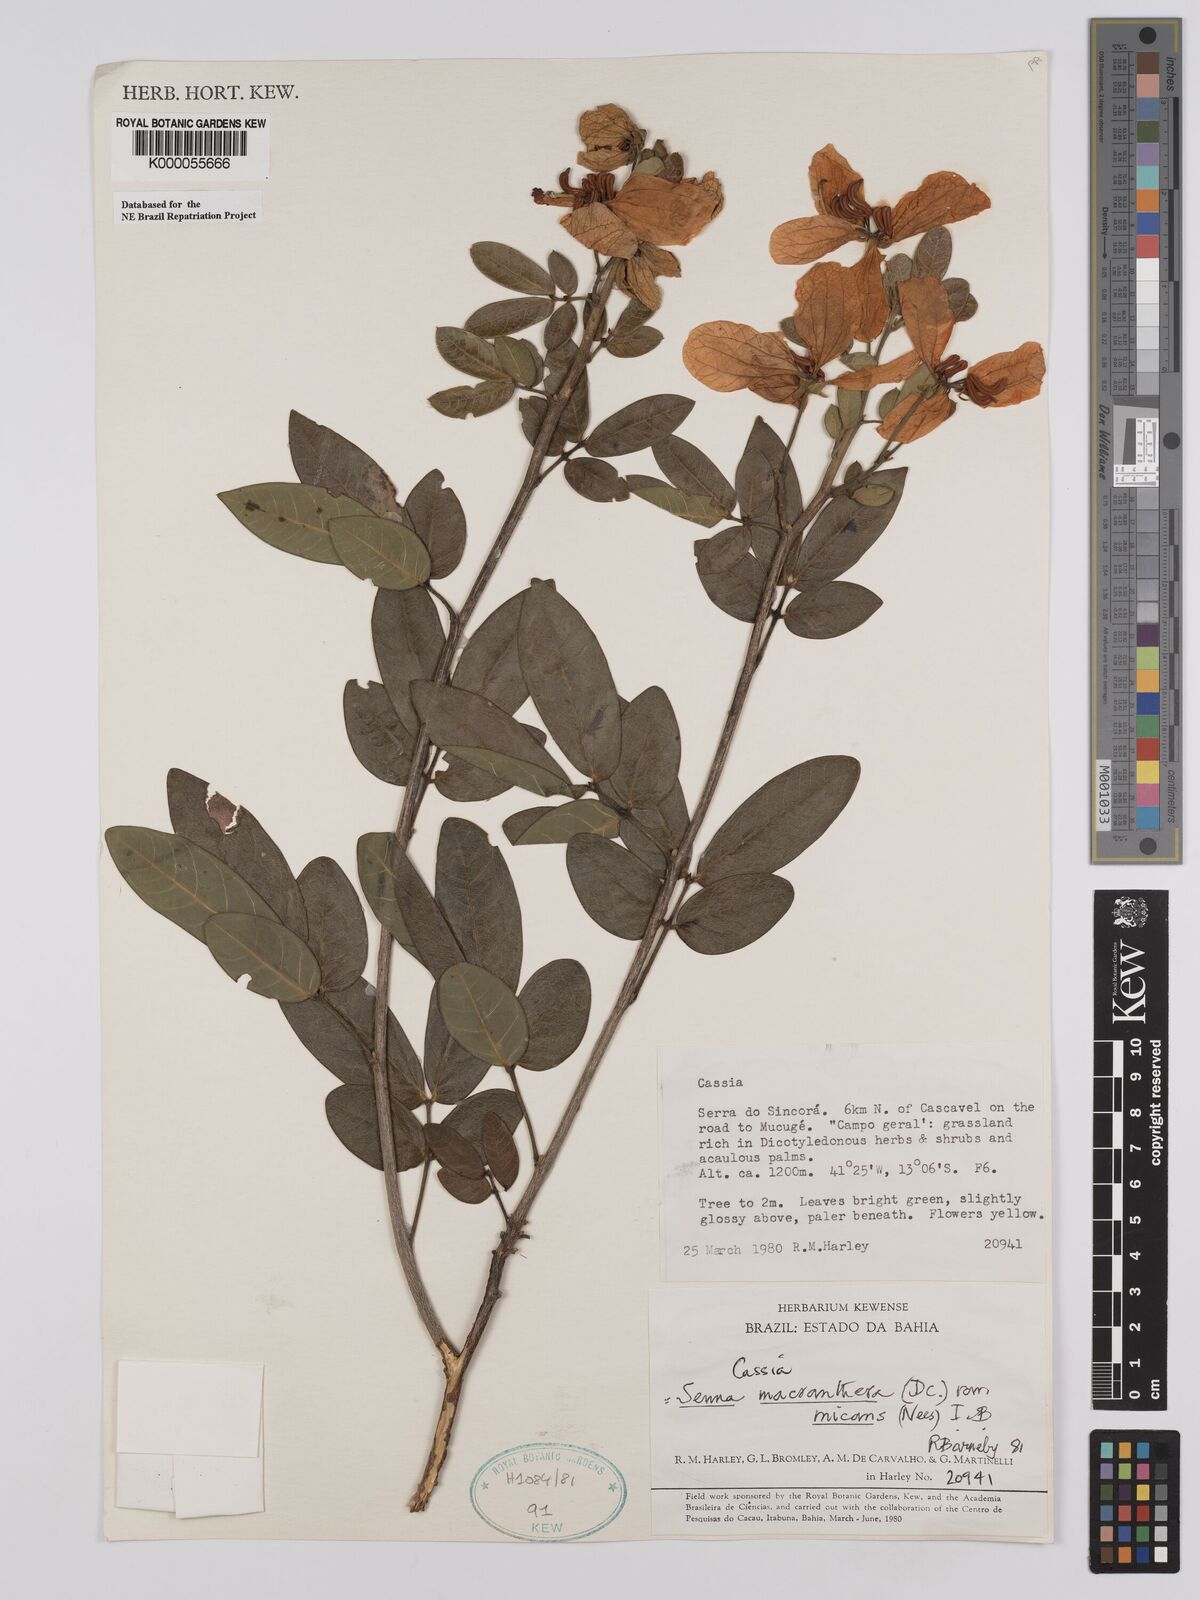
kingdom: Plantae
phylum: Tracheophyta
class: Magnoliopsida
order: Fabales
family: Fabaceae
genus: Senna
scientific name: Senna macranthera
